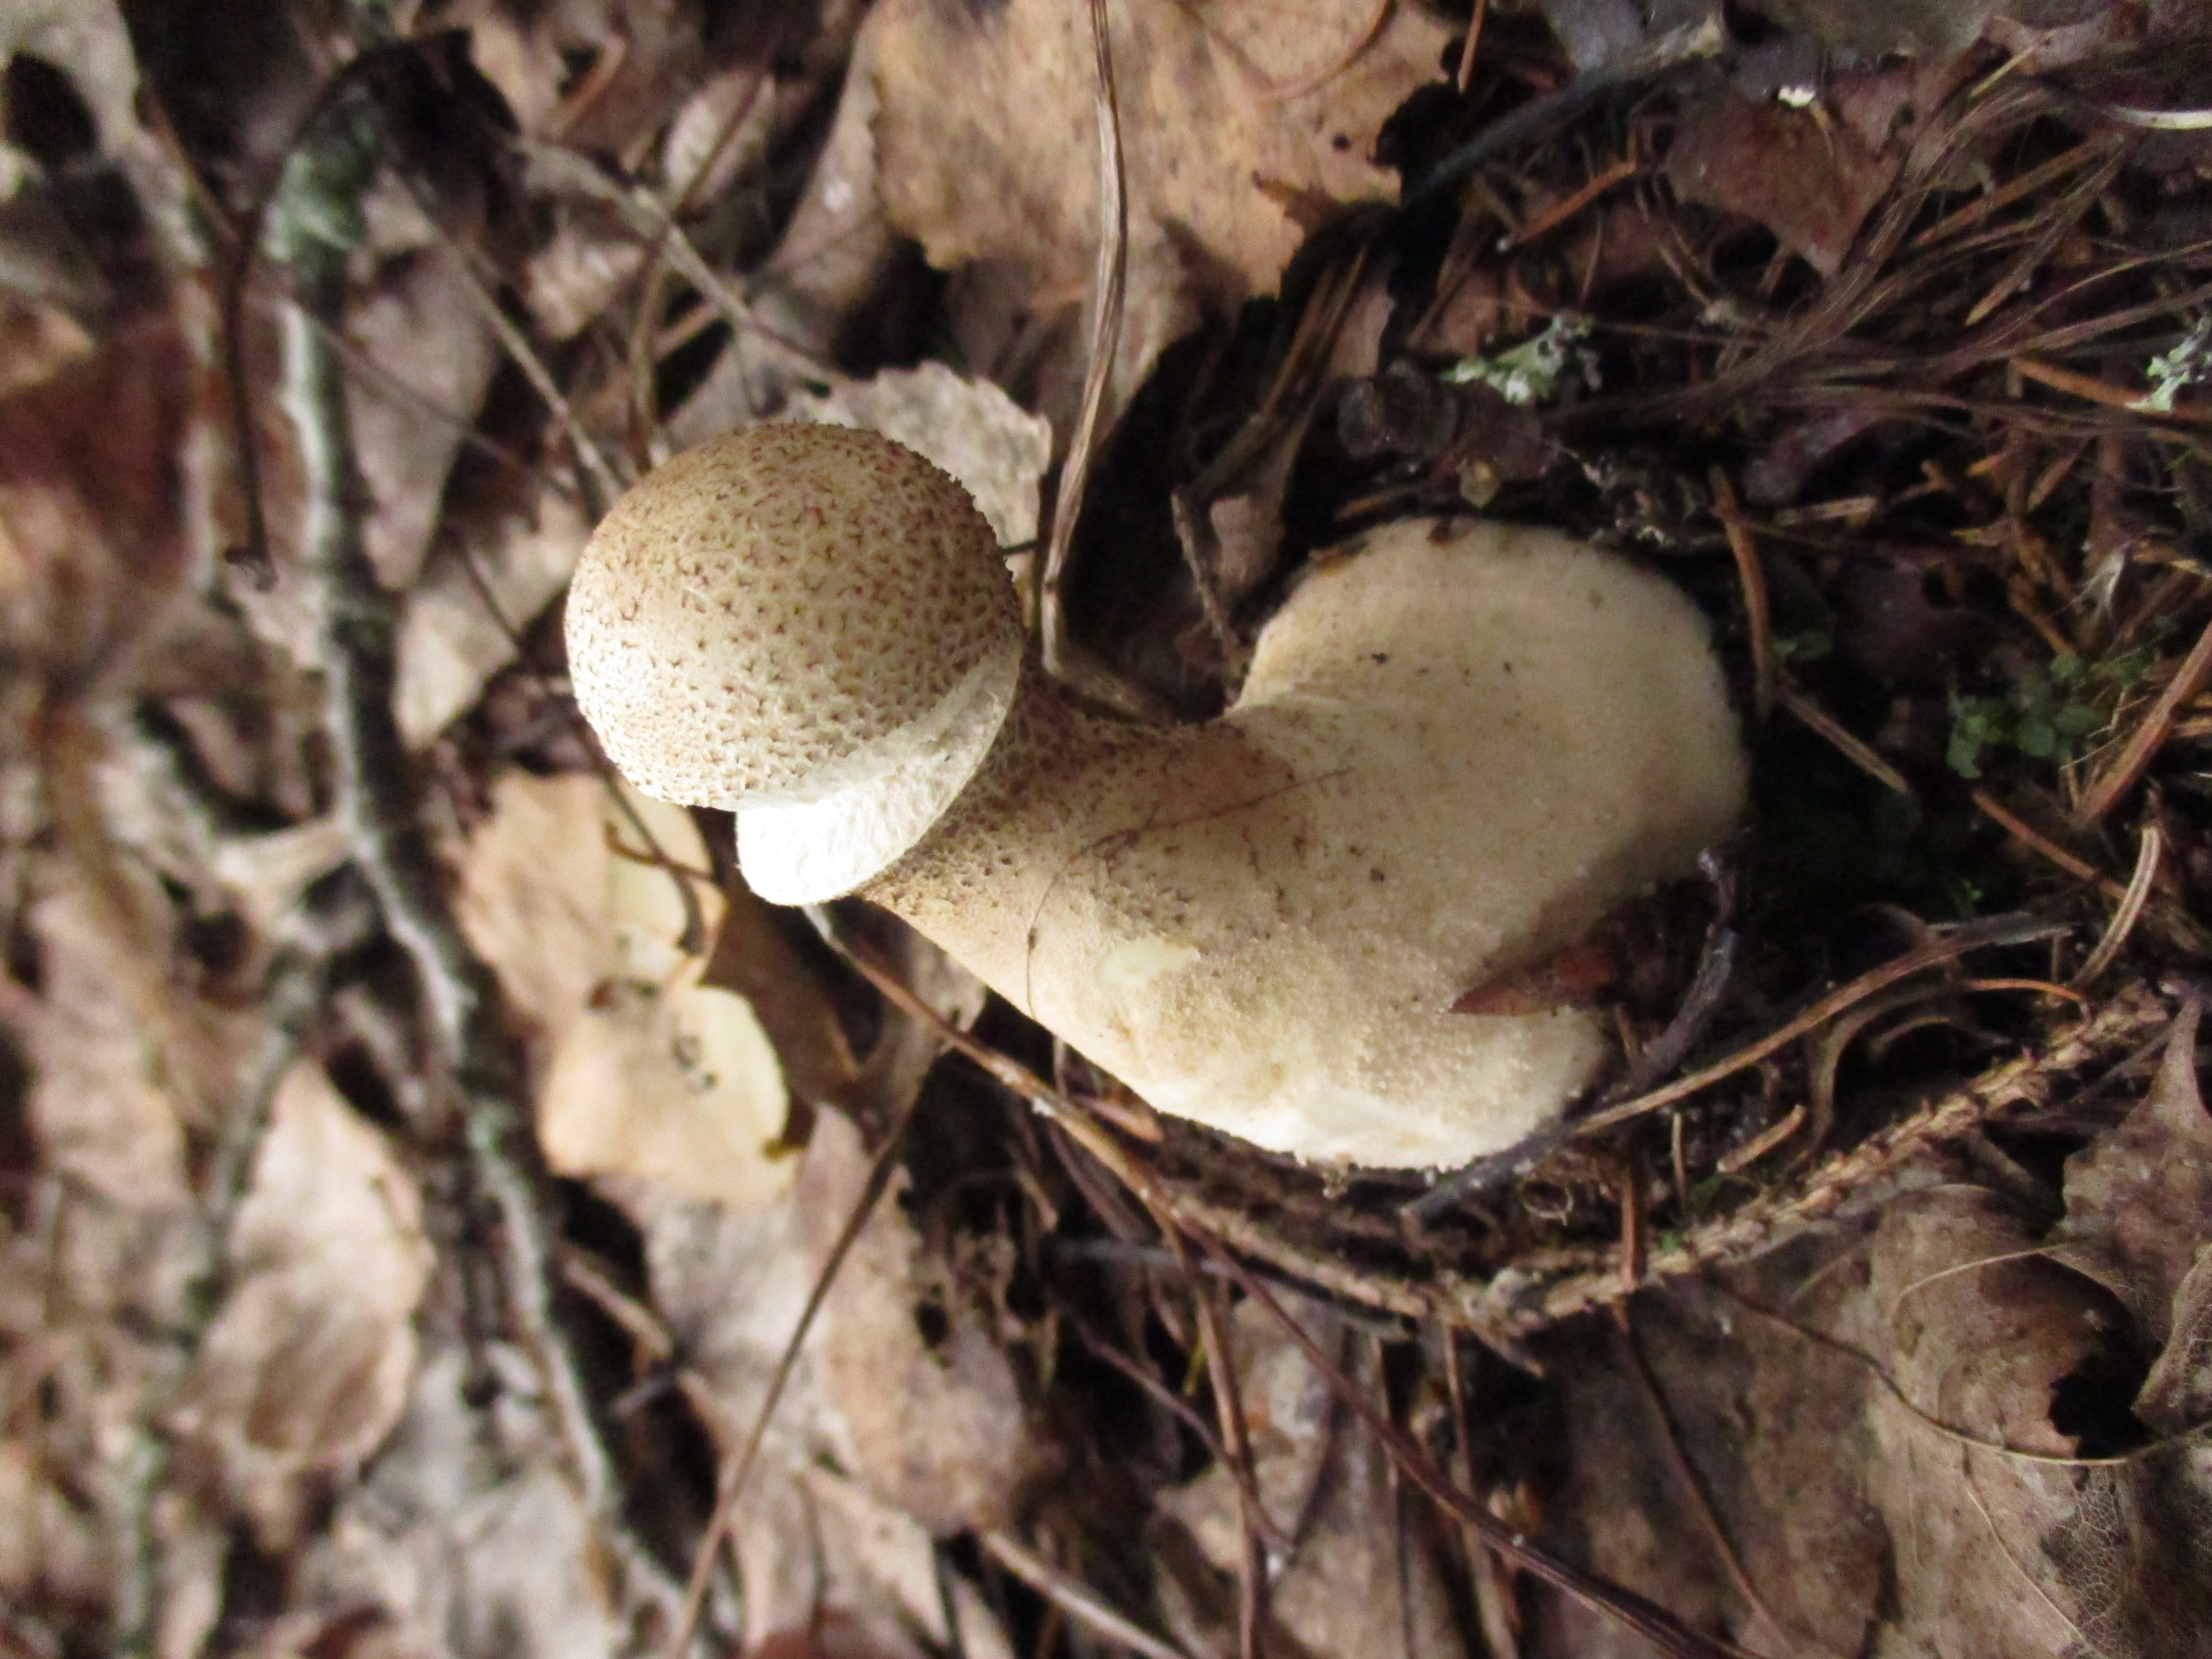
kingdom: Fungi
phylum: Basidiomycota
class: Agaricomycetes
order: Agaricales
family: Agaricaceae
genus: Lycoperdon
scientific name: Lycoperdon excipuliforme
